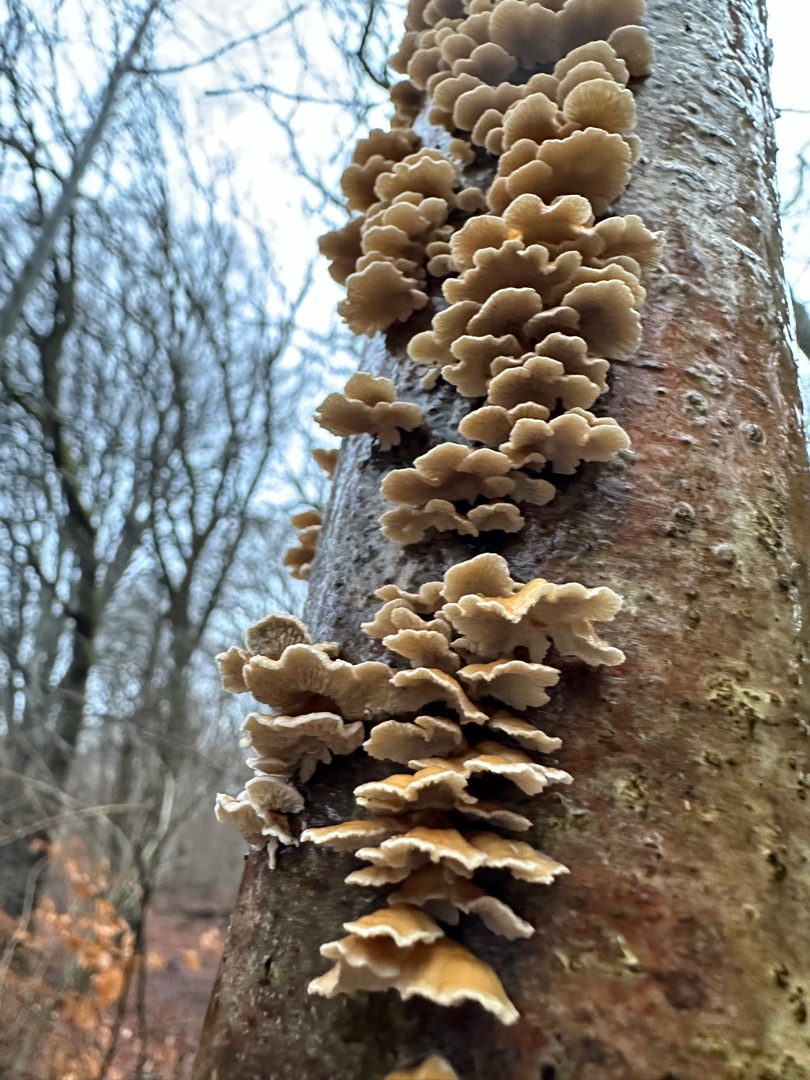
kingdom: Fungi
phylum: Basidiomycota
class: Agaricomycetes
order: Amylocorticiales
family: Amylocorticiaceae
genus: Plicaturopsis
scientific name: Plicaturopsis crispa
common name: Krusblad
